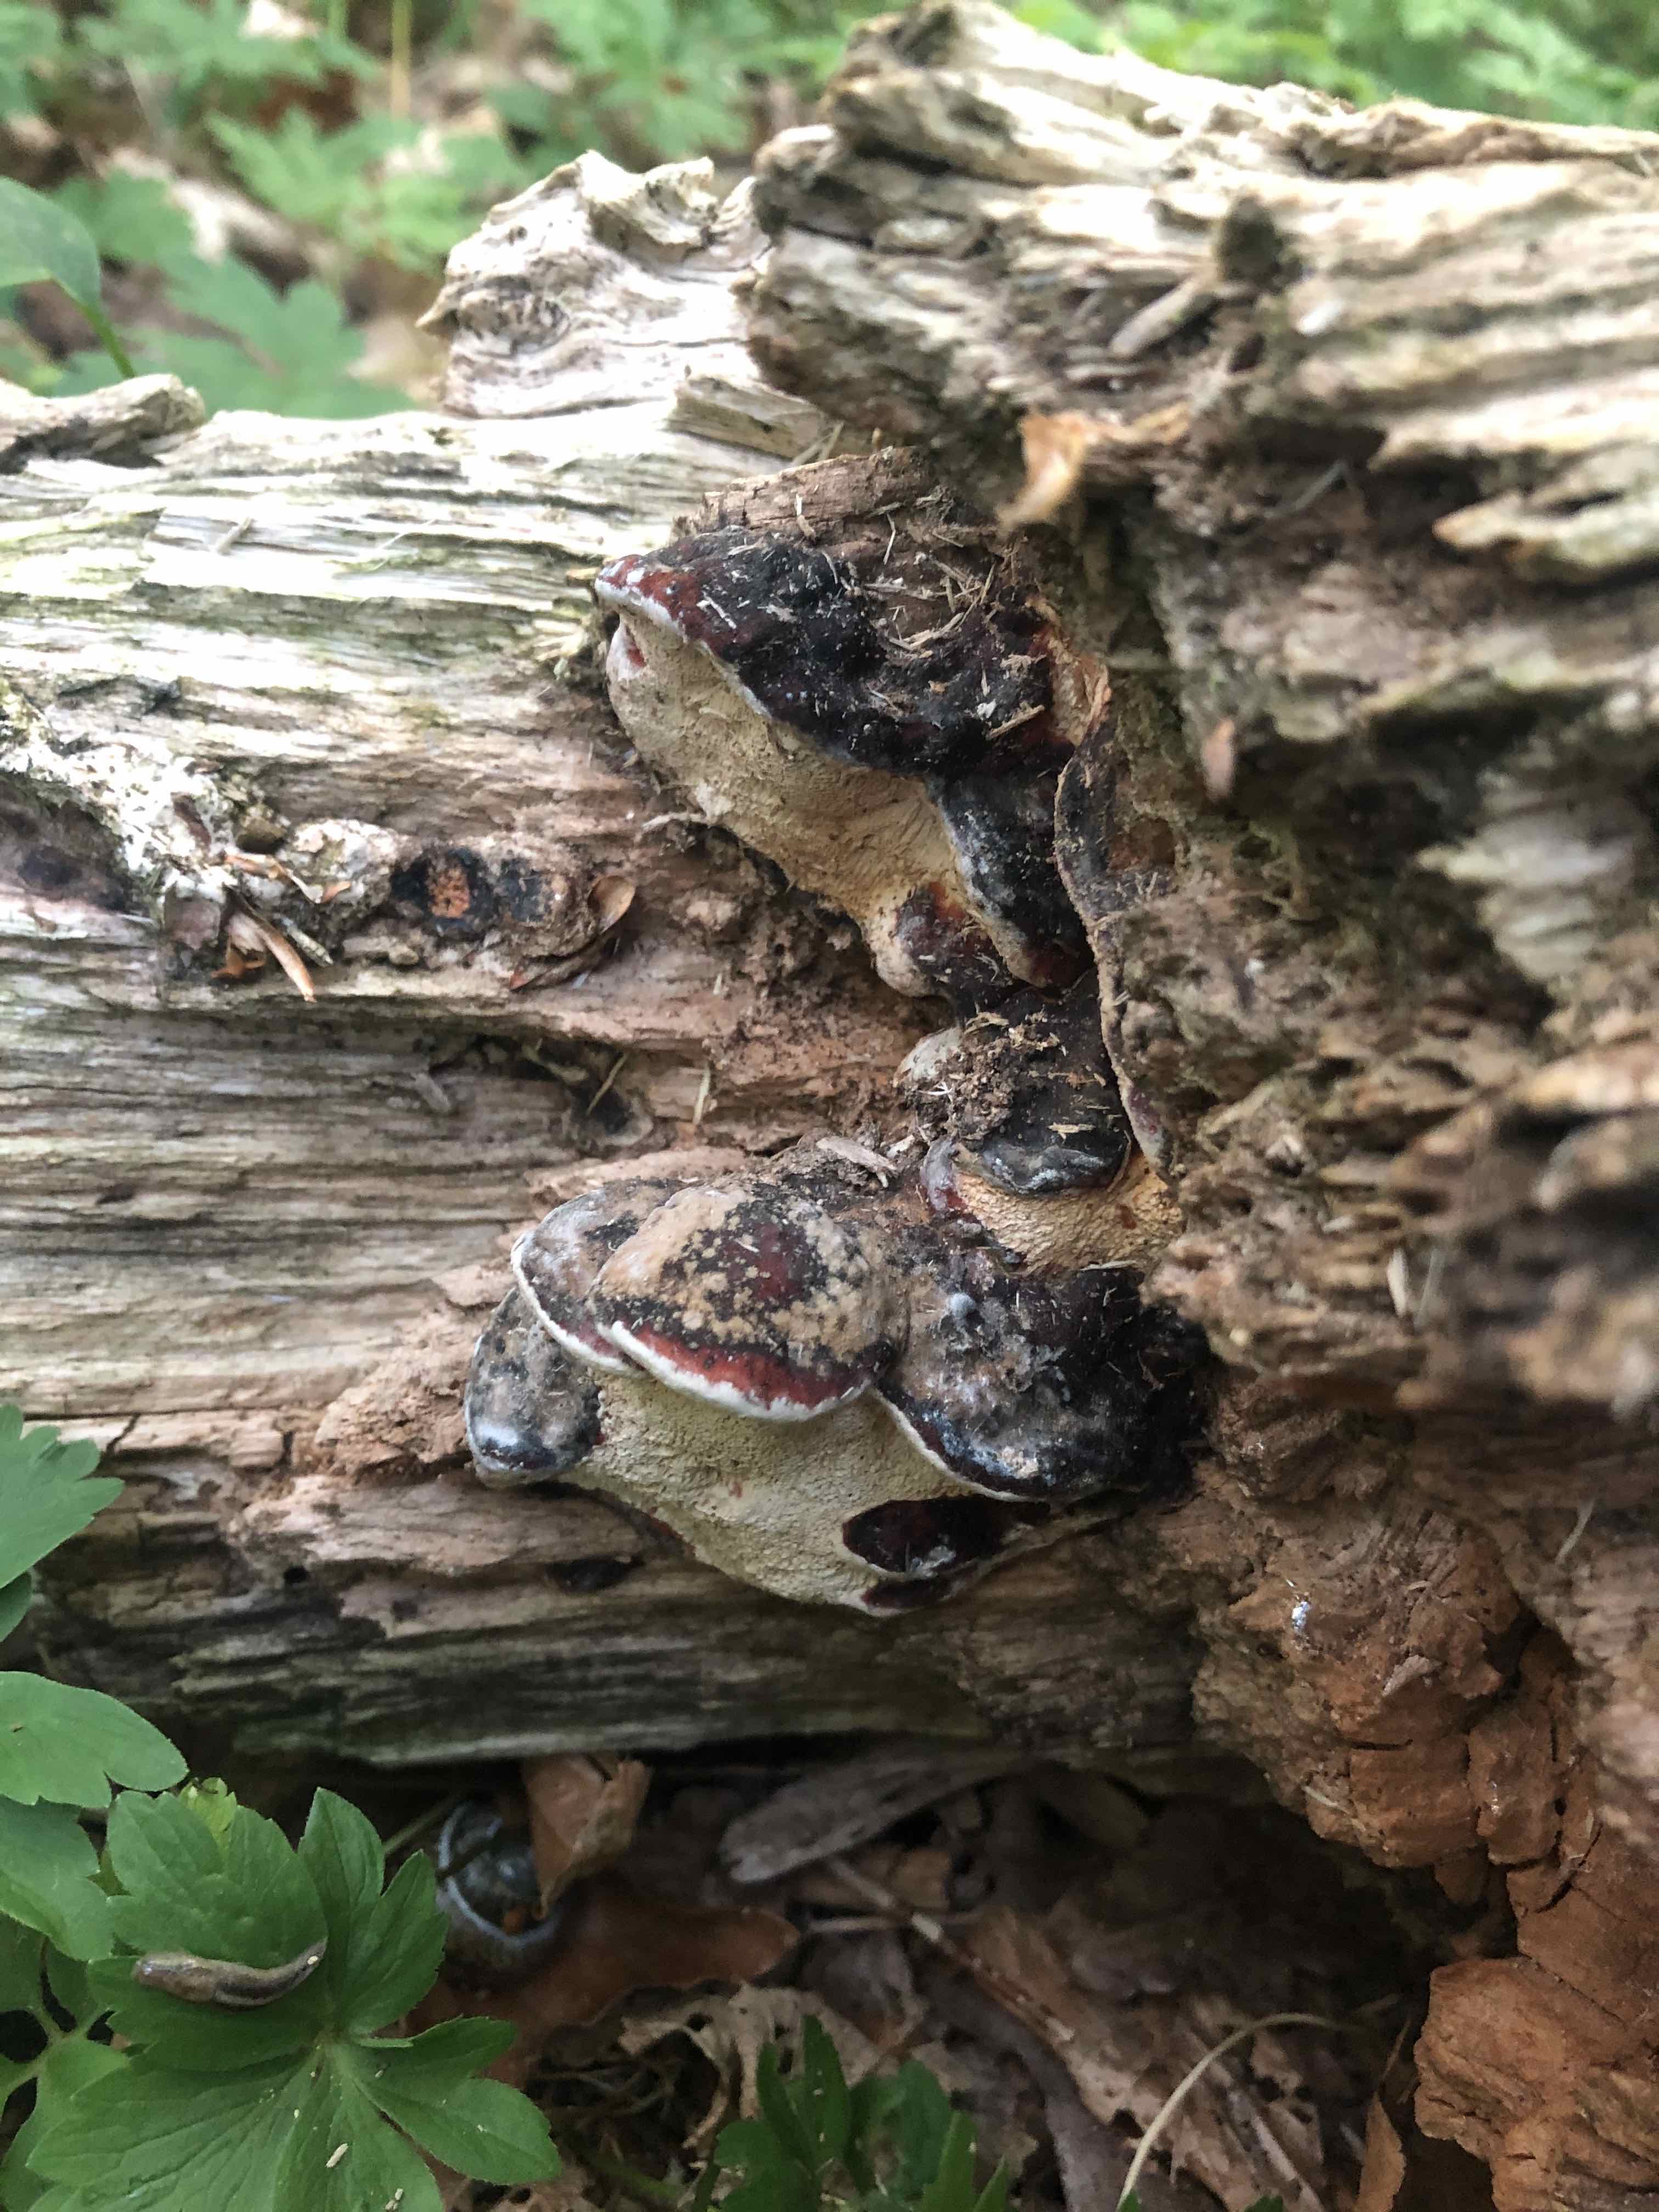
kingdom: Fungi
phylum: Basidiomycota
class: Agaricomycetes
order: Polyporales
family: Fomitopsidaceae
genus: Fomitopsis
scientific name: Fomitopsis pinicola
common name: randbæltet hovporesvamp
